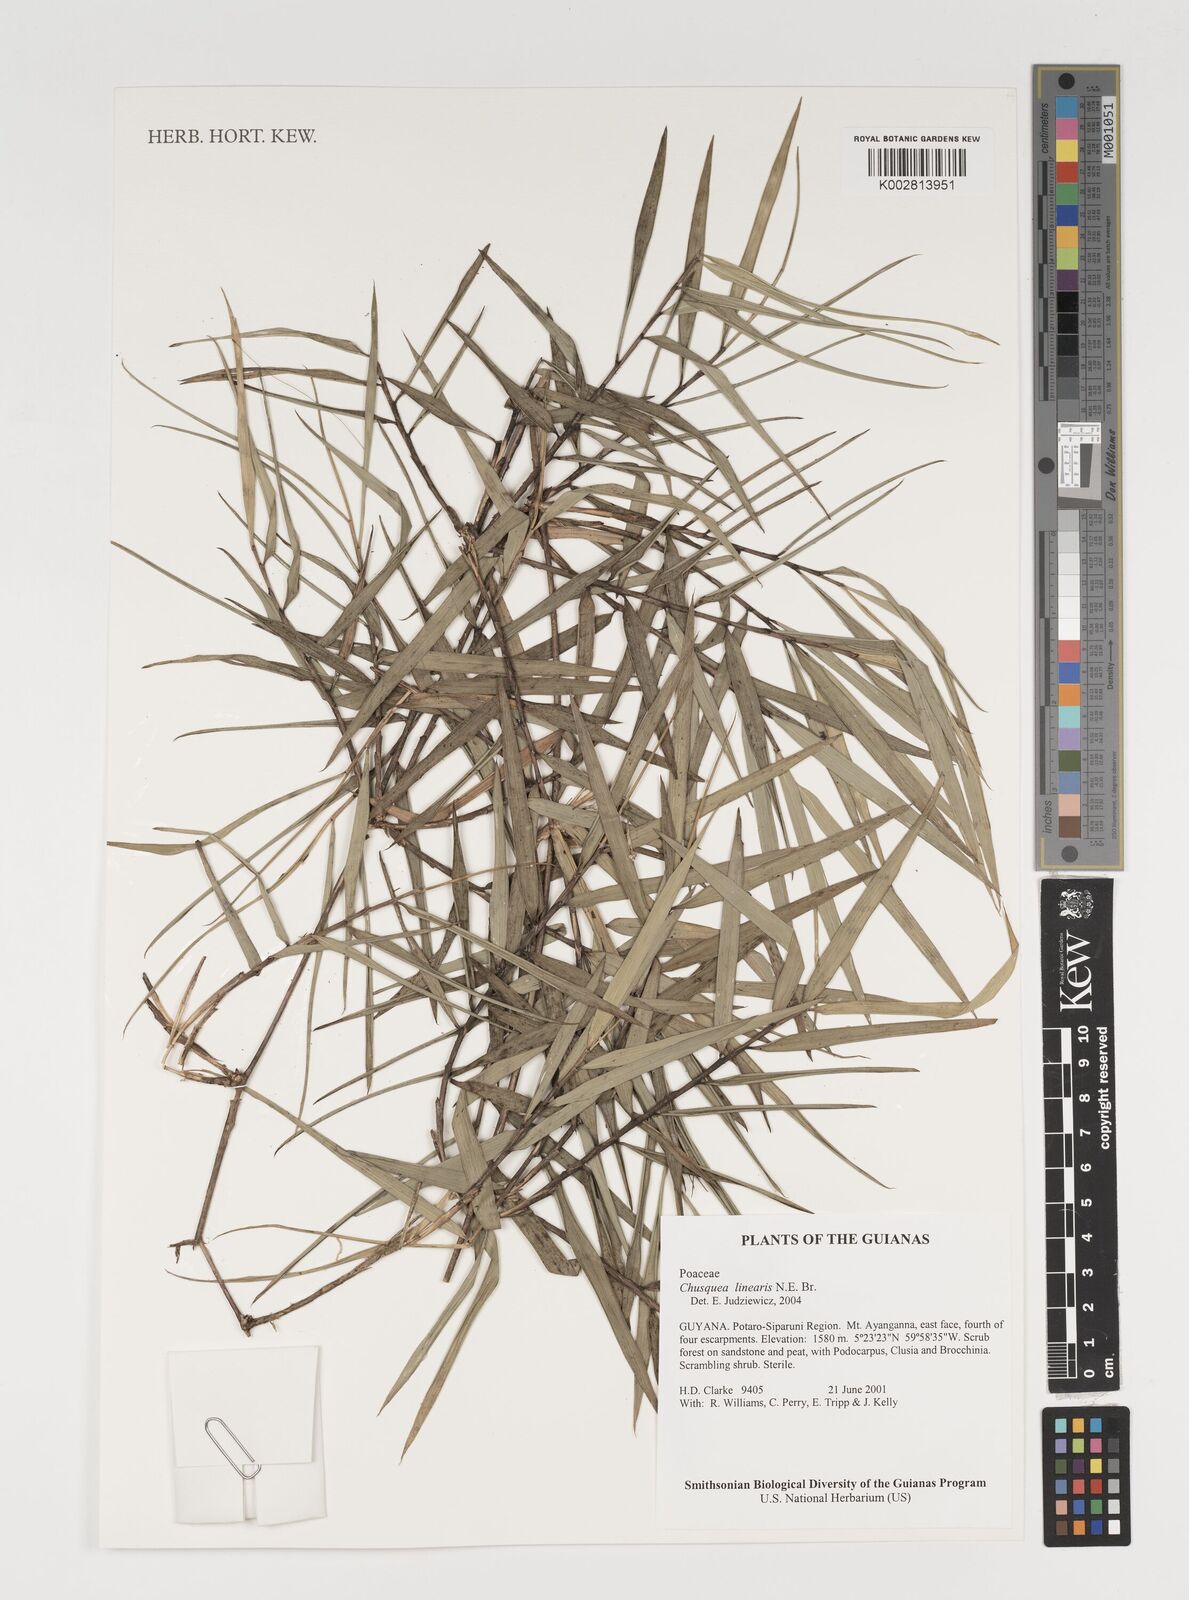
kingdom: Plantae
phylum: Tracheophyta
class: Liliopsida
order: Poales
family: Poaceae
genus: Chusquea
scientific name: Chusquea linearis
